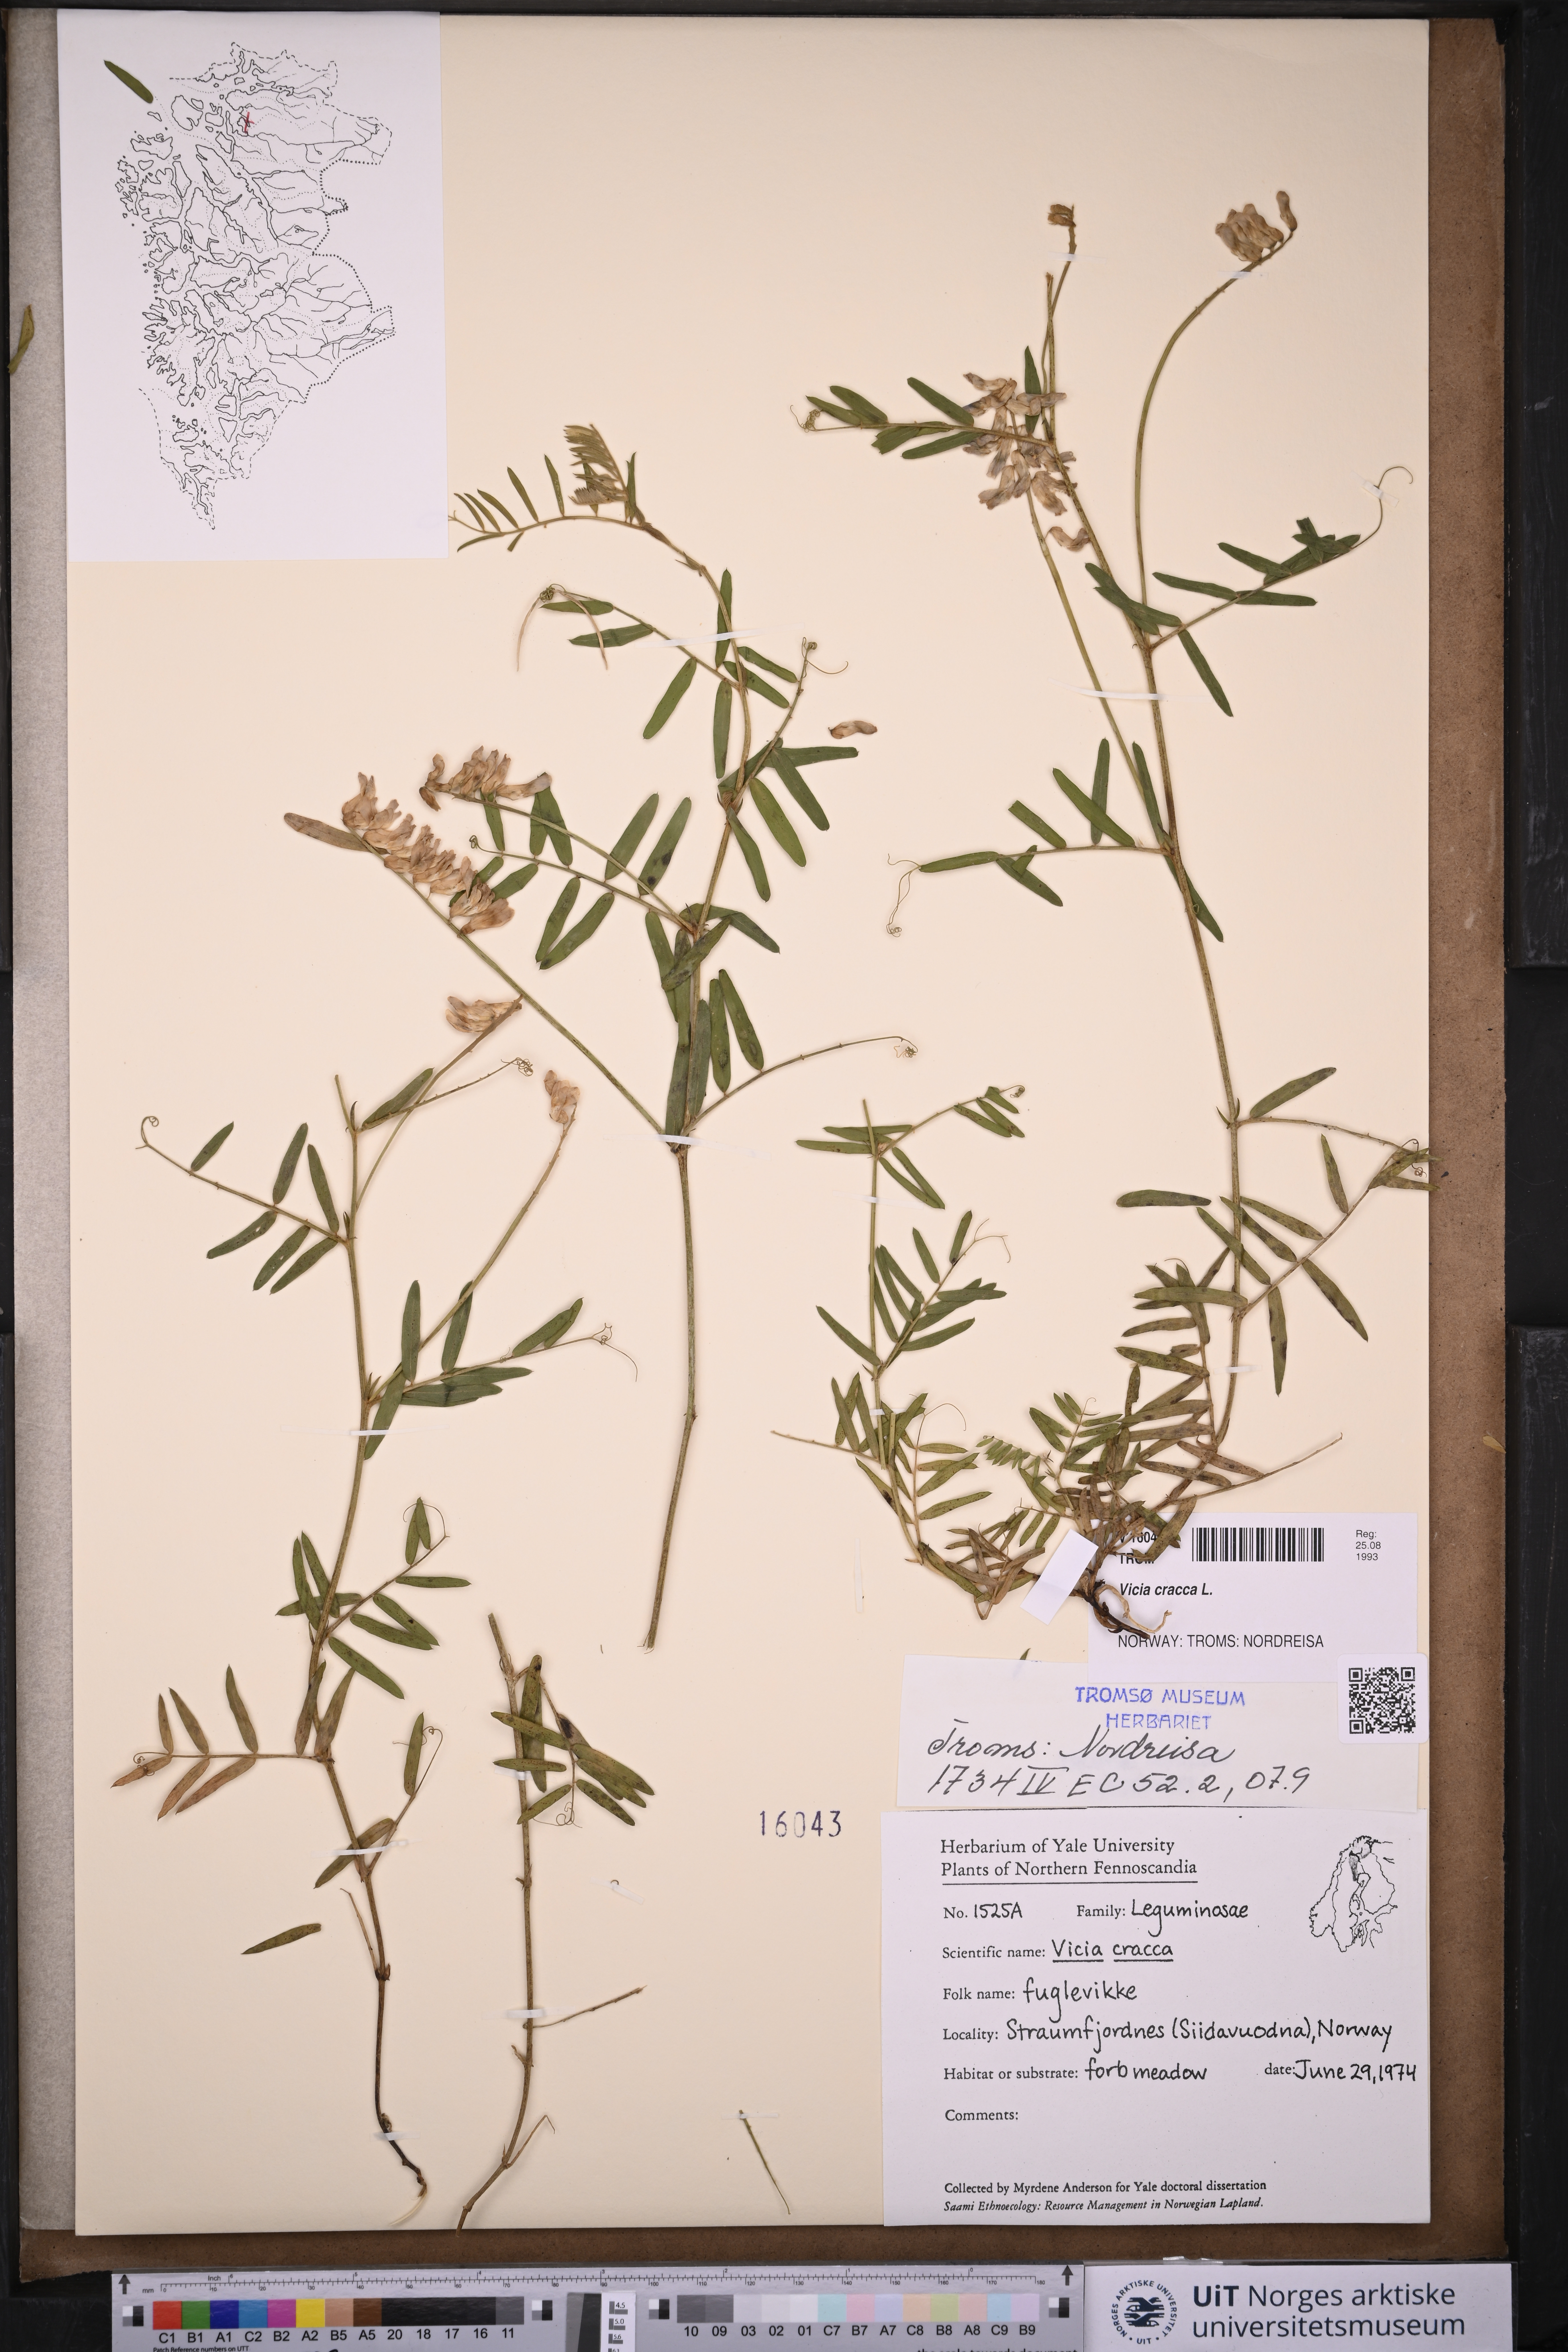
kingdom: Plantae
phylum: Tracheophyta
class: Magnoliopsida
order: Fabales
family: Fabaceae
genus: Vicia
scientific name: Vicia cracca
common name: Bird vetch
